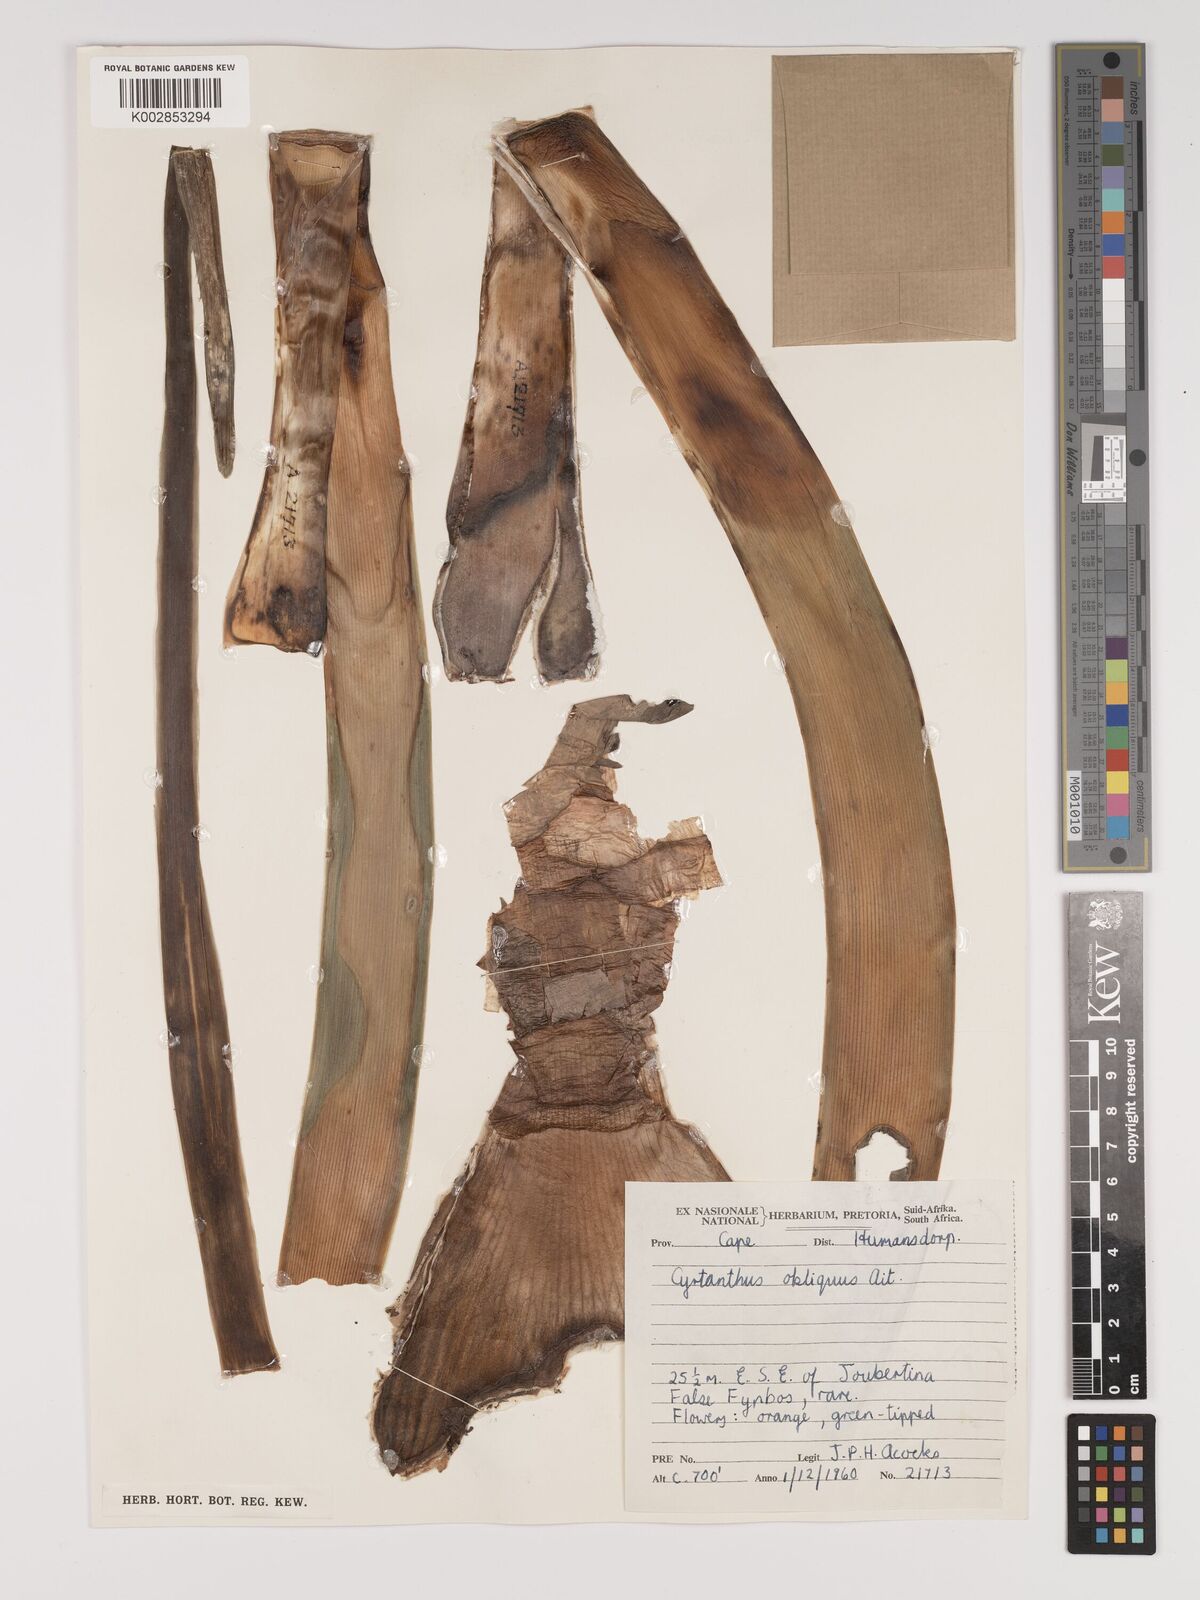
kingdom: Plantae
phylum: Tracheophyta
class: Liliopsida
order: Asparagales
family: Amaryllidaceae
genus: Cyrtanthus
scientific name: Cyrtanthus obliquus
